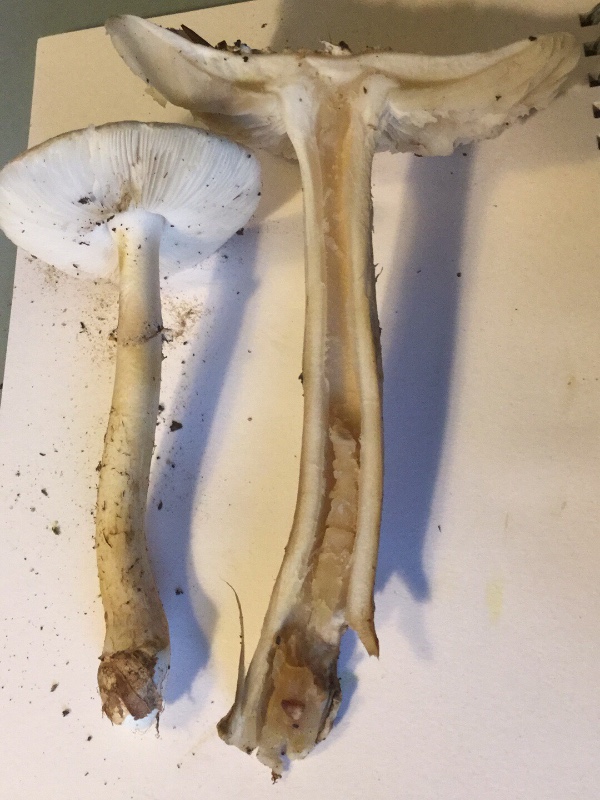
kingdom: Fungi
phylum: Basidiomycota
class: Agaricomycetes
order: Agaricales
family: Amanitaceae
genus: Amanita
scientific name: Amanita citrina
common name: False death-cap
